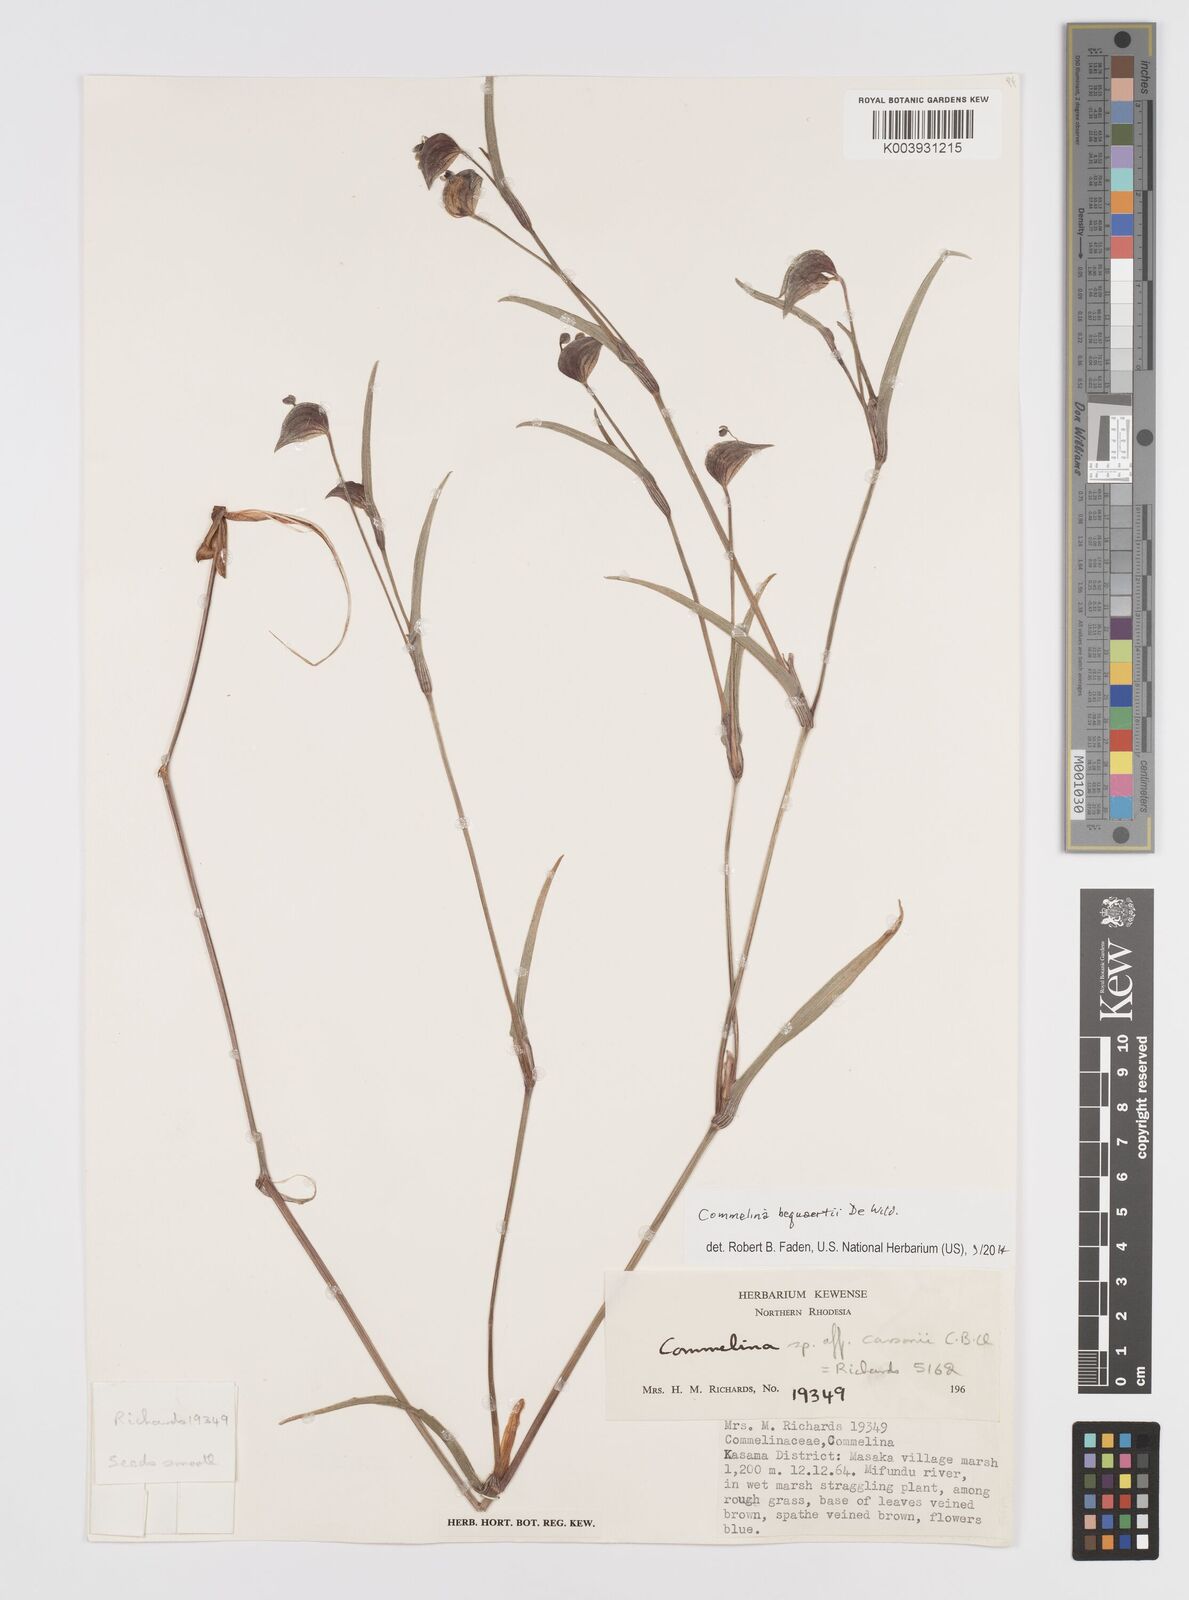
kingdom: Plantae
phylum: Tracheophyta
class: Liliopsida
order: Commelinales
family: Commelinaceae
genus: Commelina
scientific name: Commelina bequaertii
